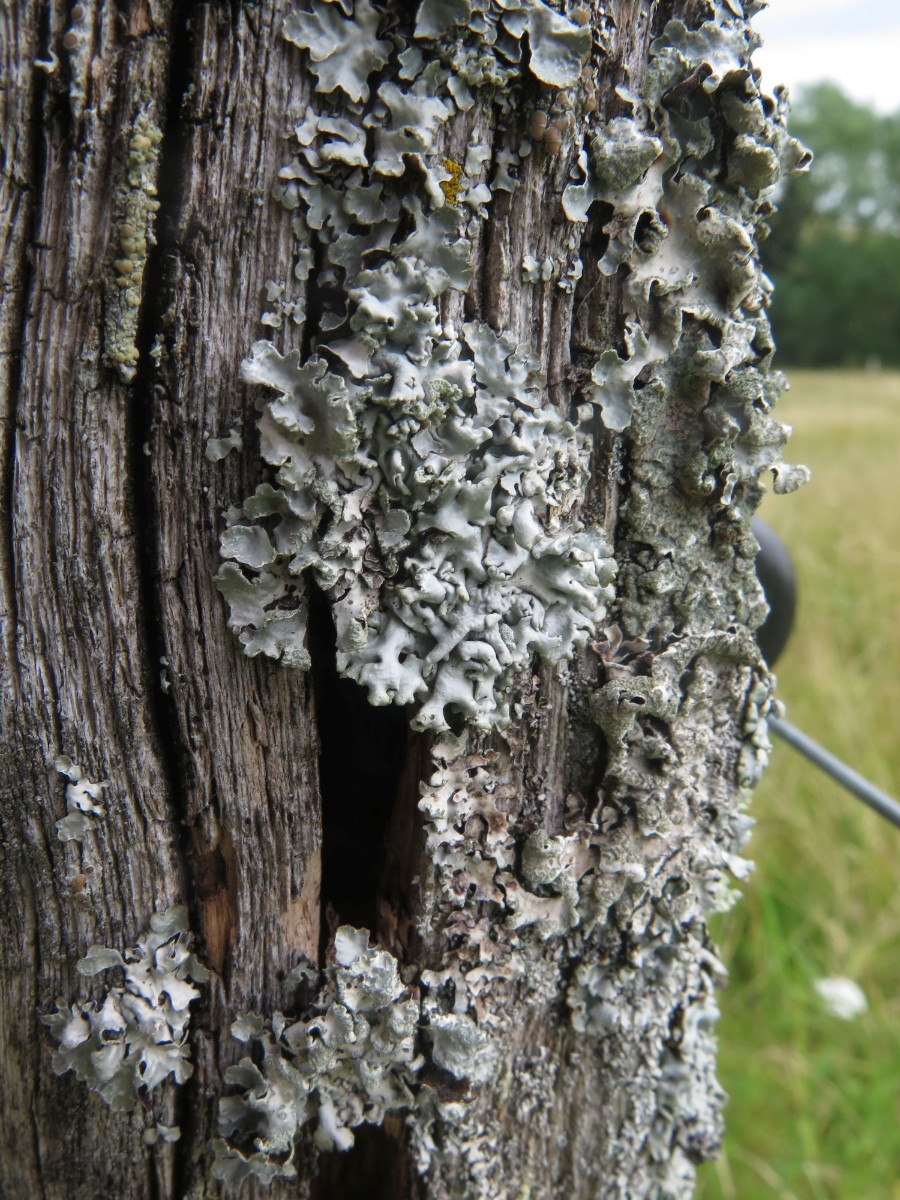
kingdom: Fungi
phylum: Ascomycota
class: Lecanoromycetes
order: Lecanorales
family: Parmeliaceae
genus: Hypogymnia
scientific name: Hypogymnia physodes
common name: almindelig kvistlav
